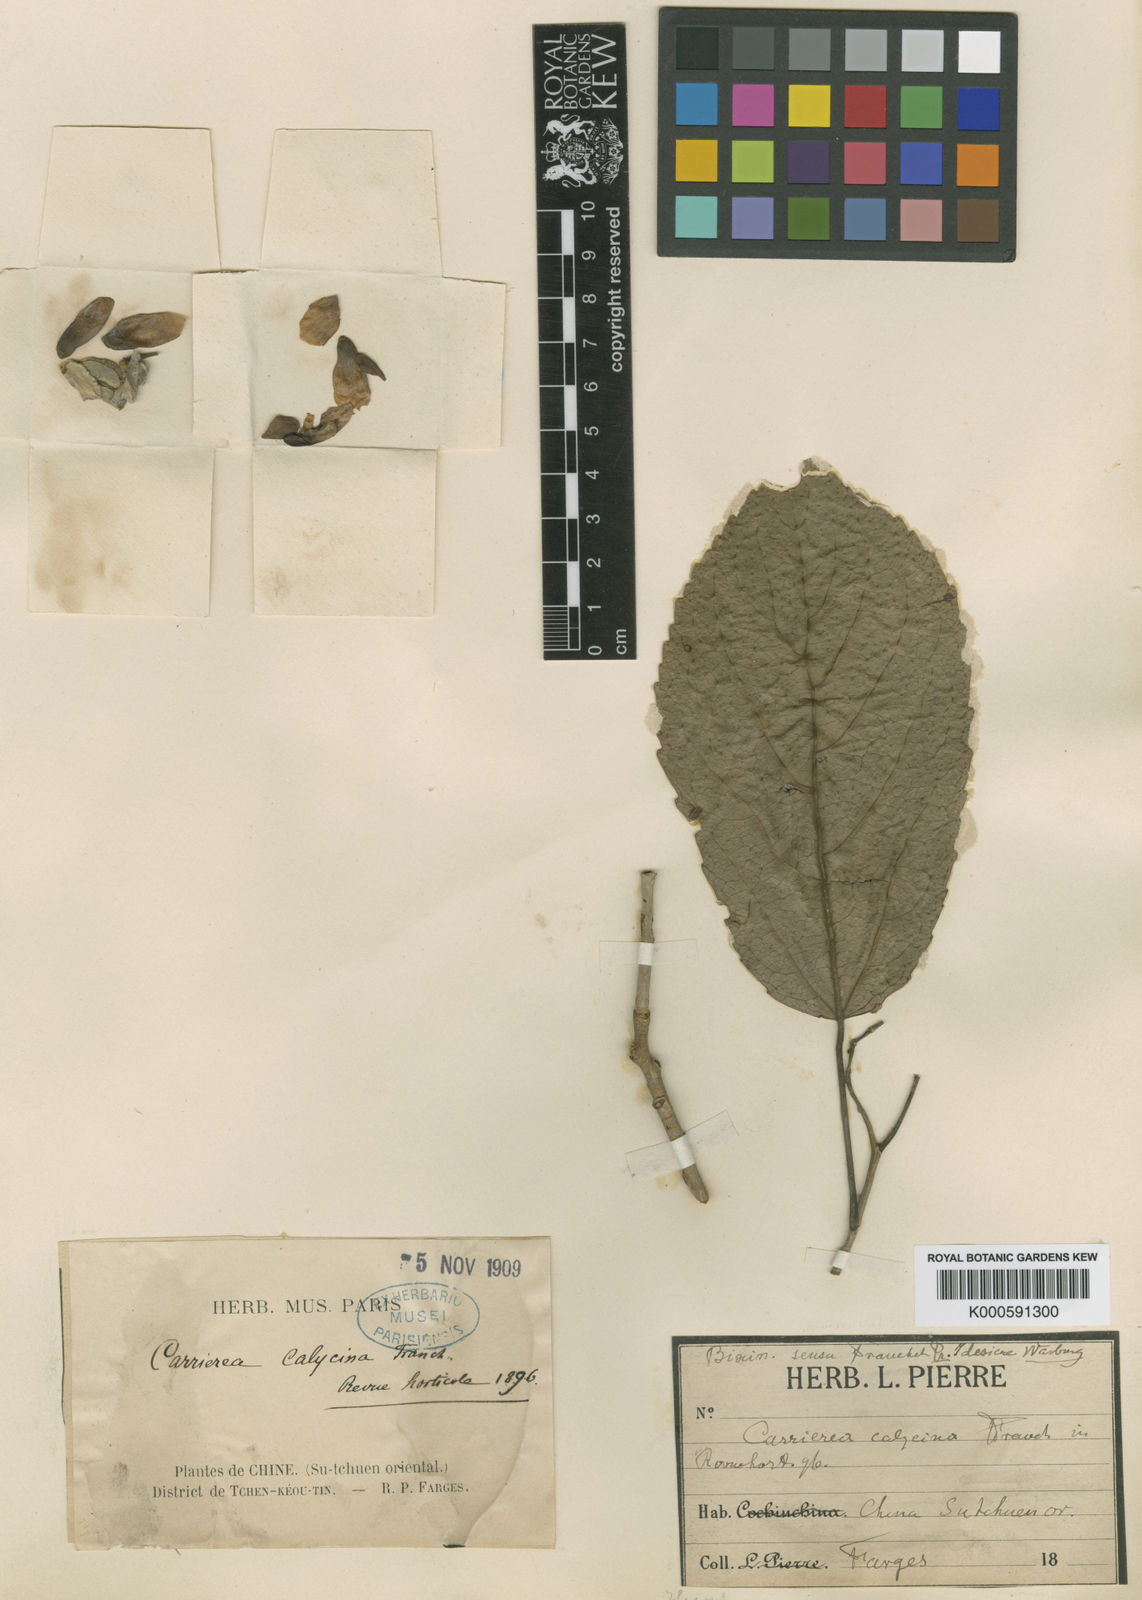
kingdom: Plantae
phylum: Tracheophyta
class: Magnoliopsida
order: Malpighiales
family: Salicaceae
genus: Carrierea
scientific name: Carrierea calycina
